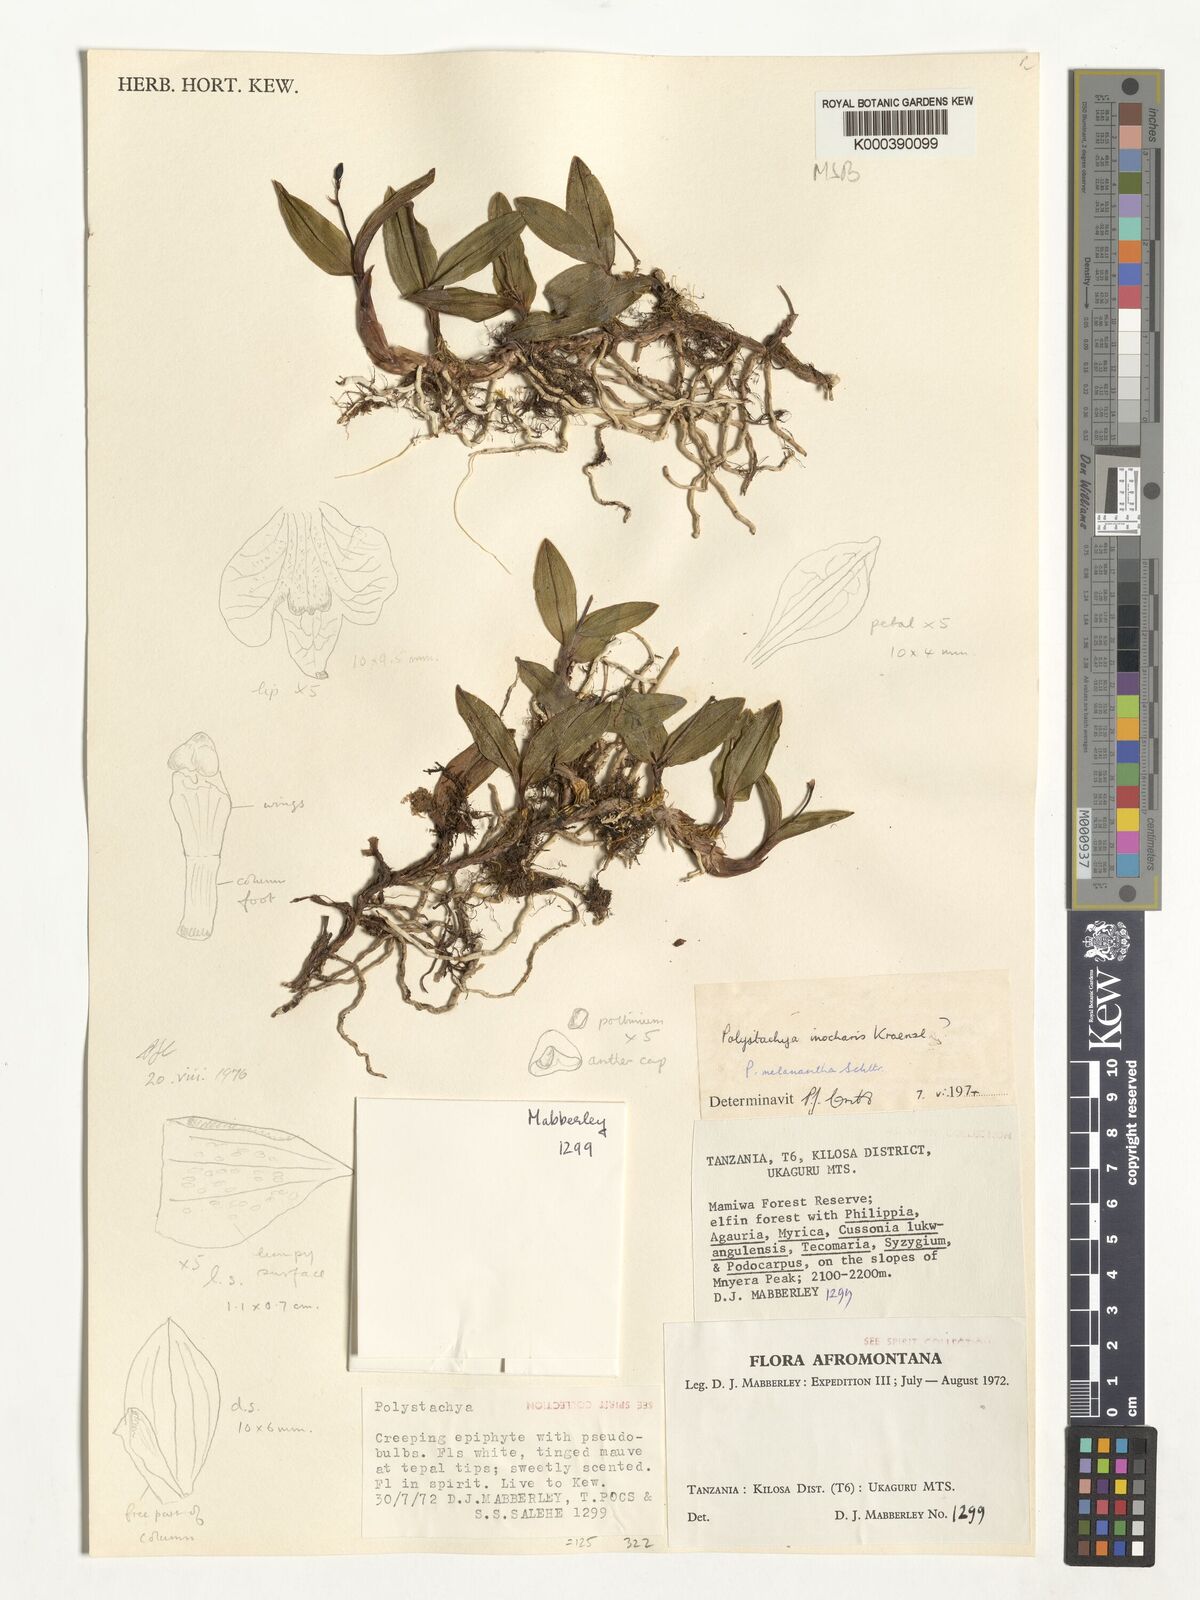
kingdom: Plantae
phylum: Tracheophyta
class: Liliopsida
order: Asparagales
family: Orchidaceae
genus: Polystachya
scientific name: Polystachya melanantha
